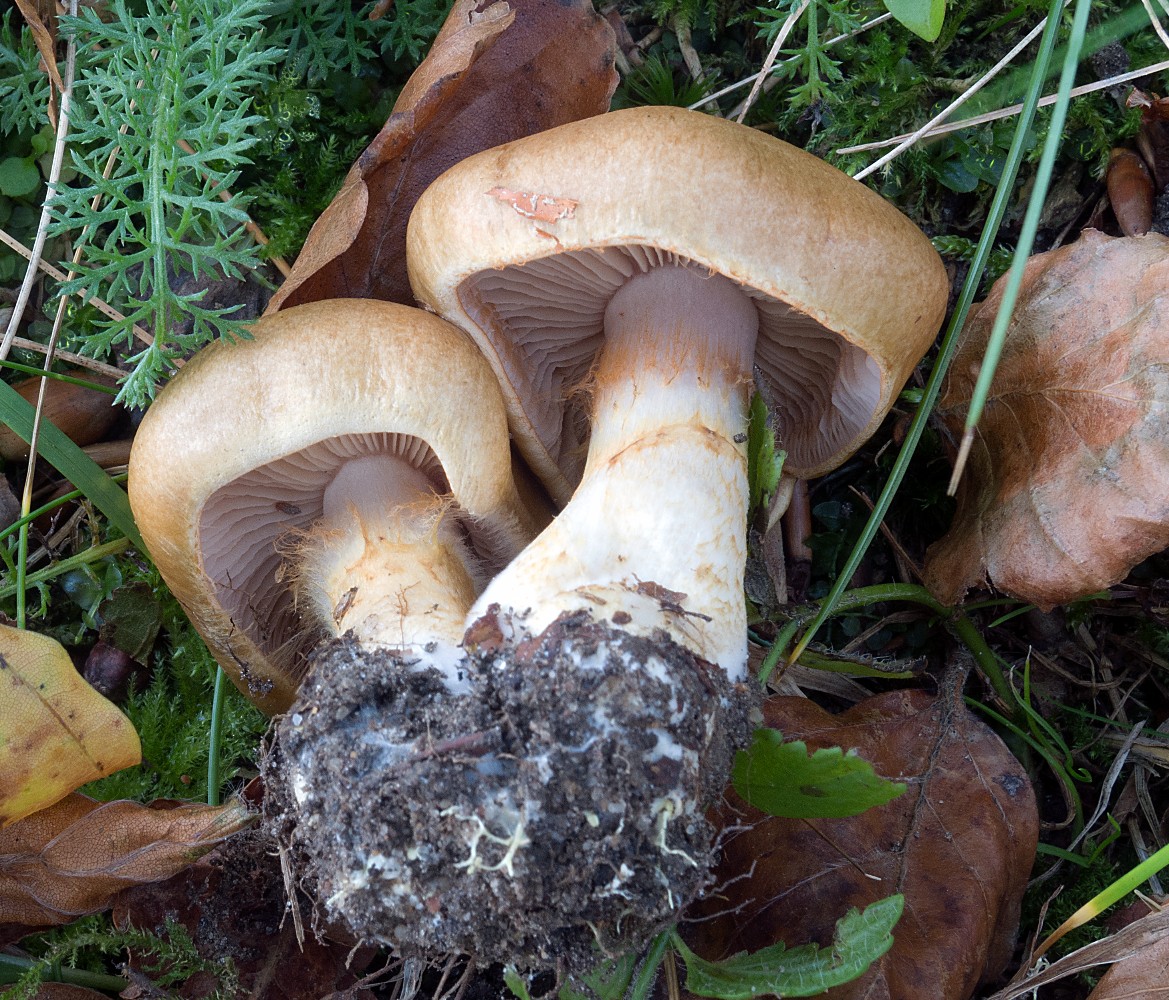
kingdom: Fungi
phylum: Basidiomycota
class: Agaricomycetes
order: Agaricales
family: Cortinariaceae
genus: Phlegmacium
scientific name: Phlegmacium cliduchus
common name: majs-slørhat
